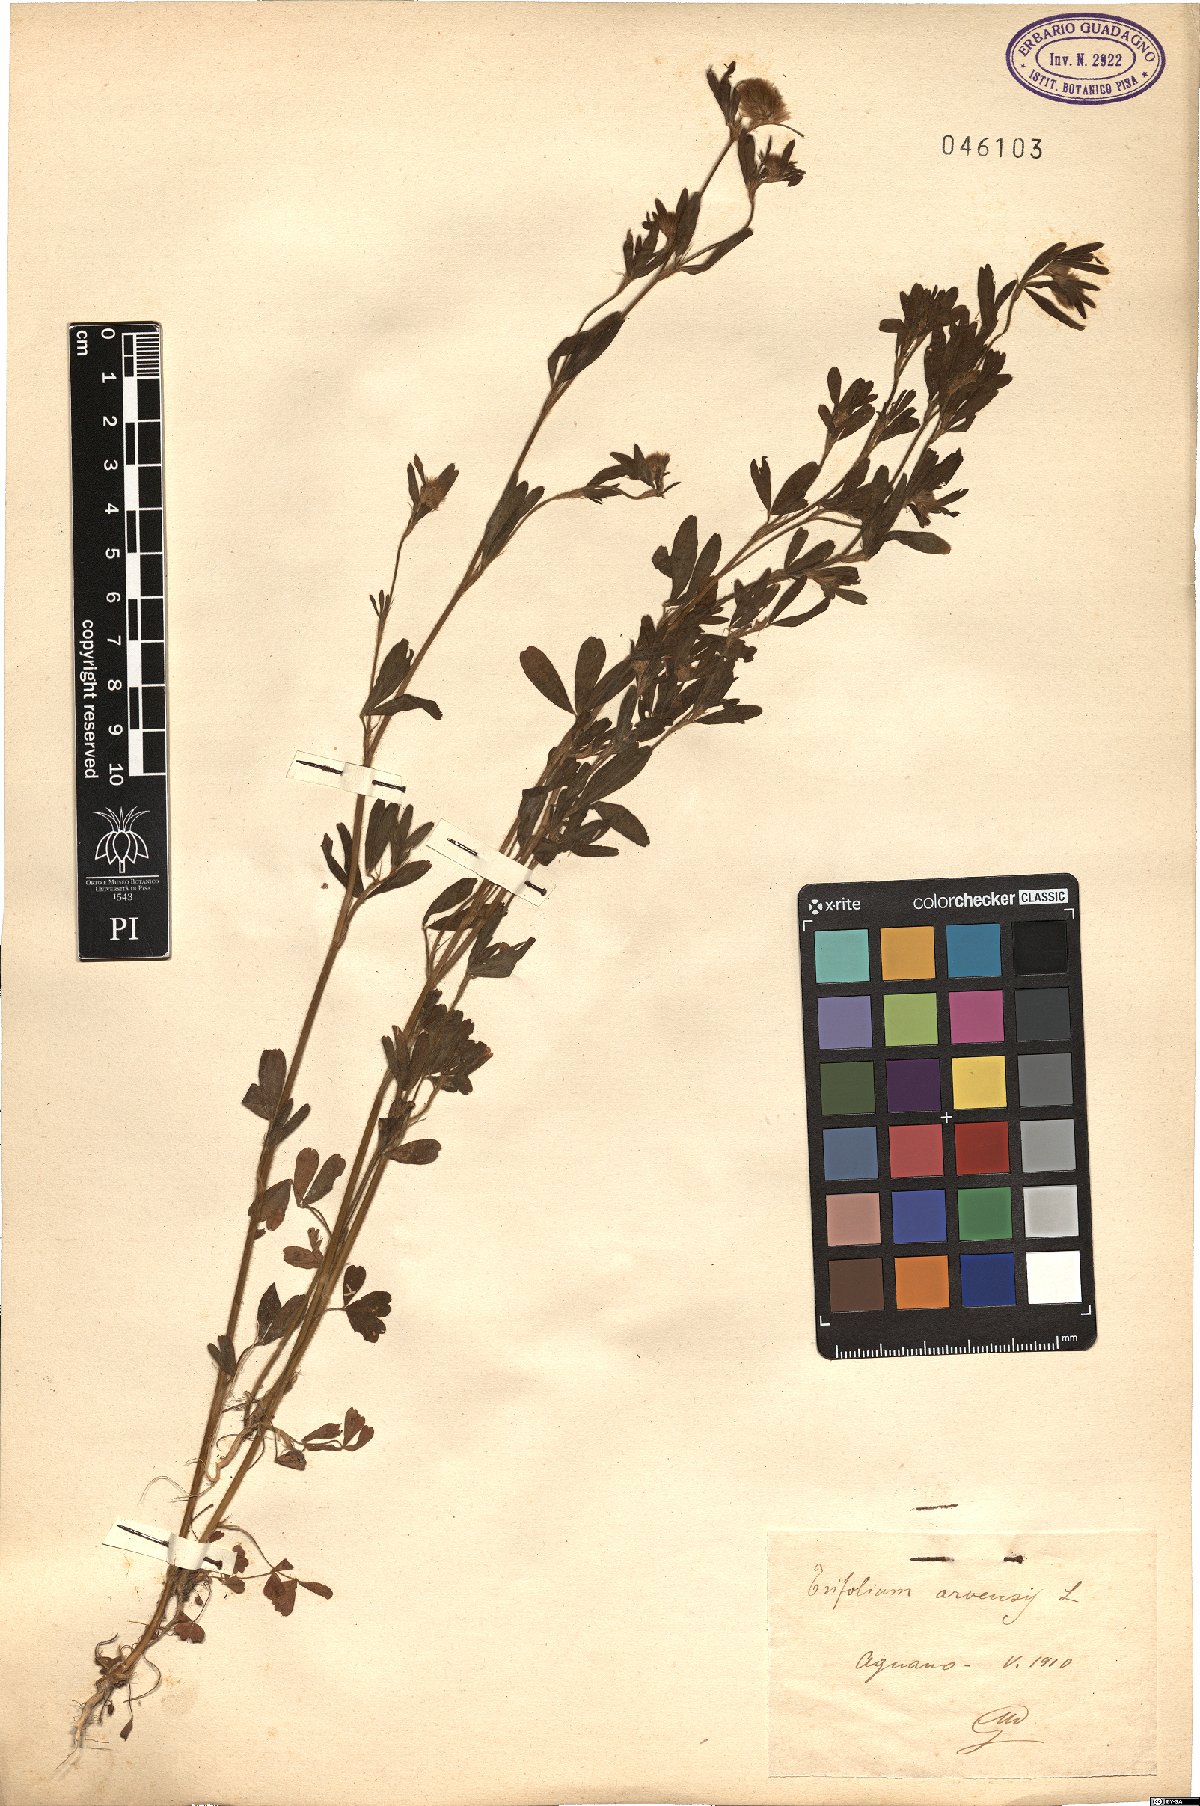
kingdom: Plantae
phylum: Tracheophyta
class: Magnoliopsida
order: Fabales
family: Fabaceae
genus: Trifolium
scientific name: Trifolium arvense
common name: Hare's-foot clover
